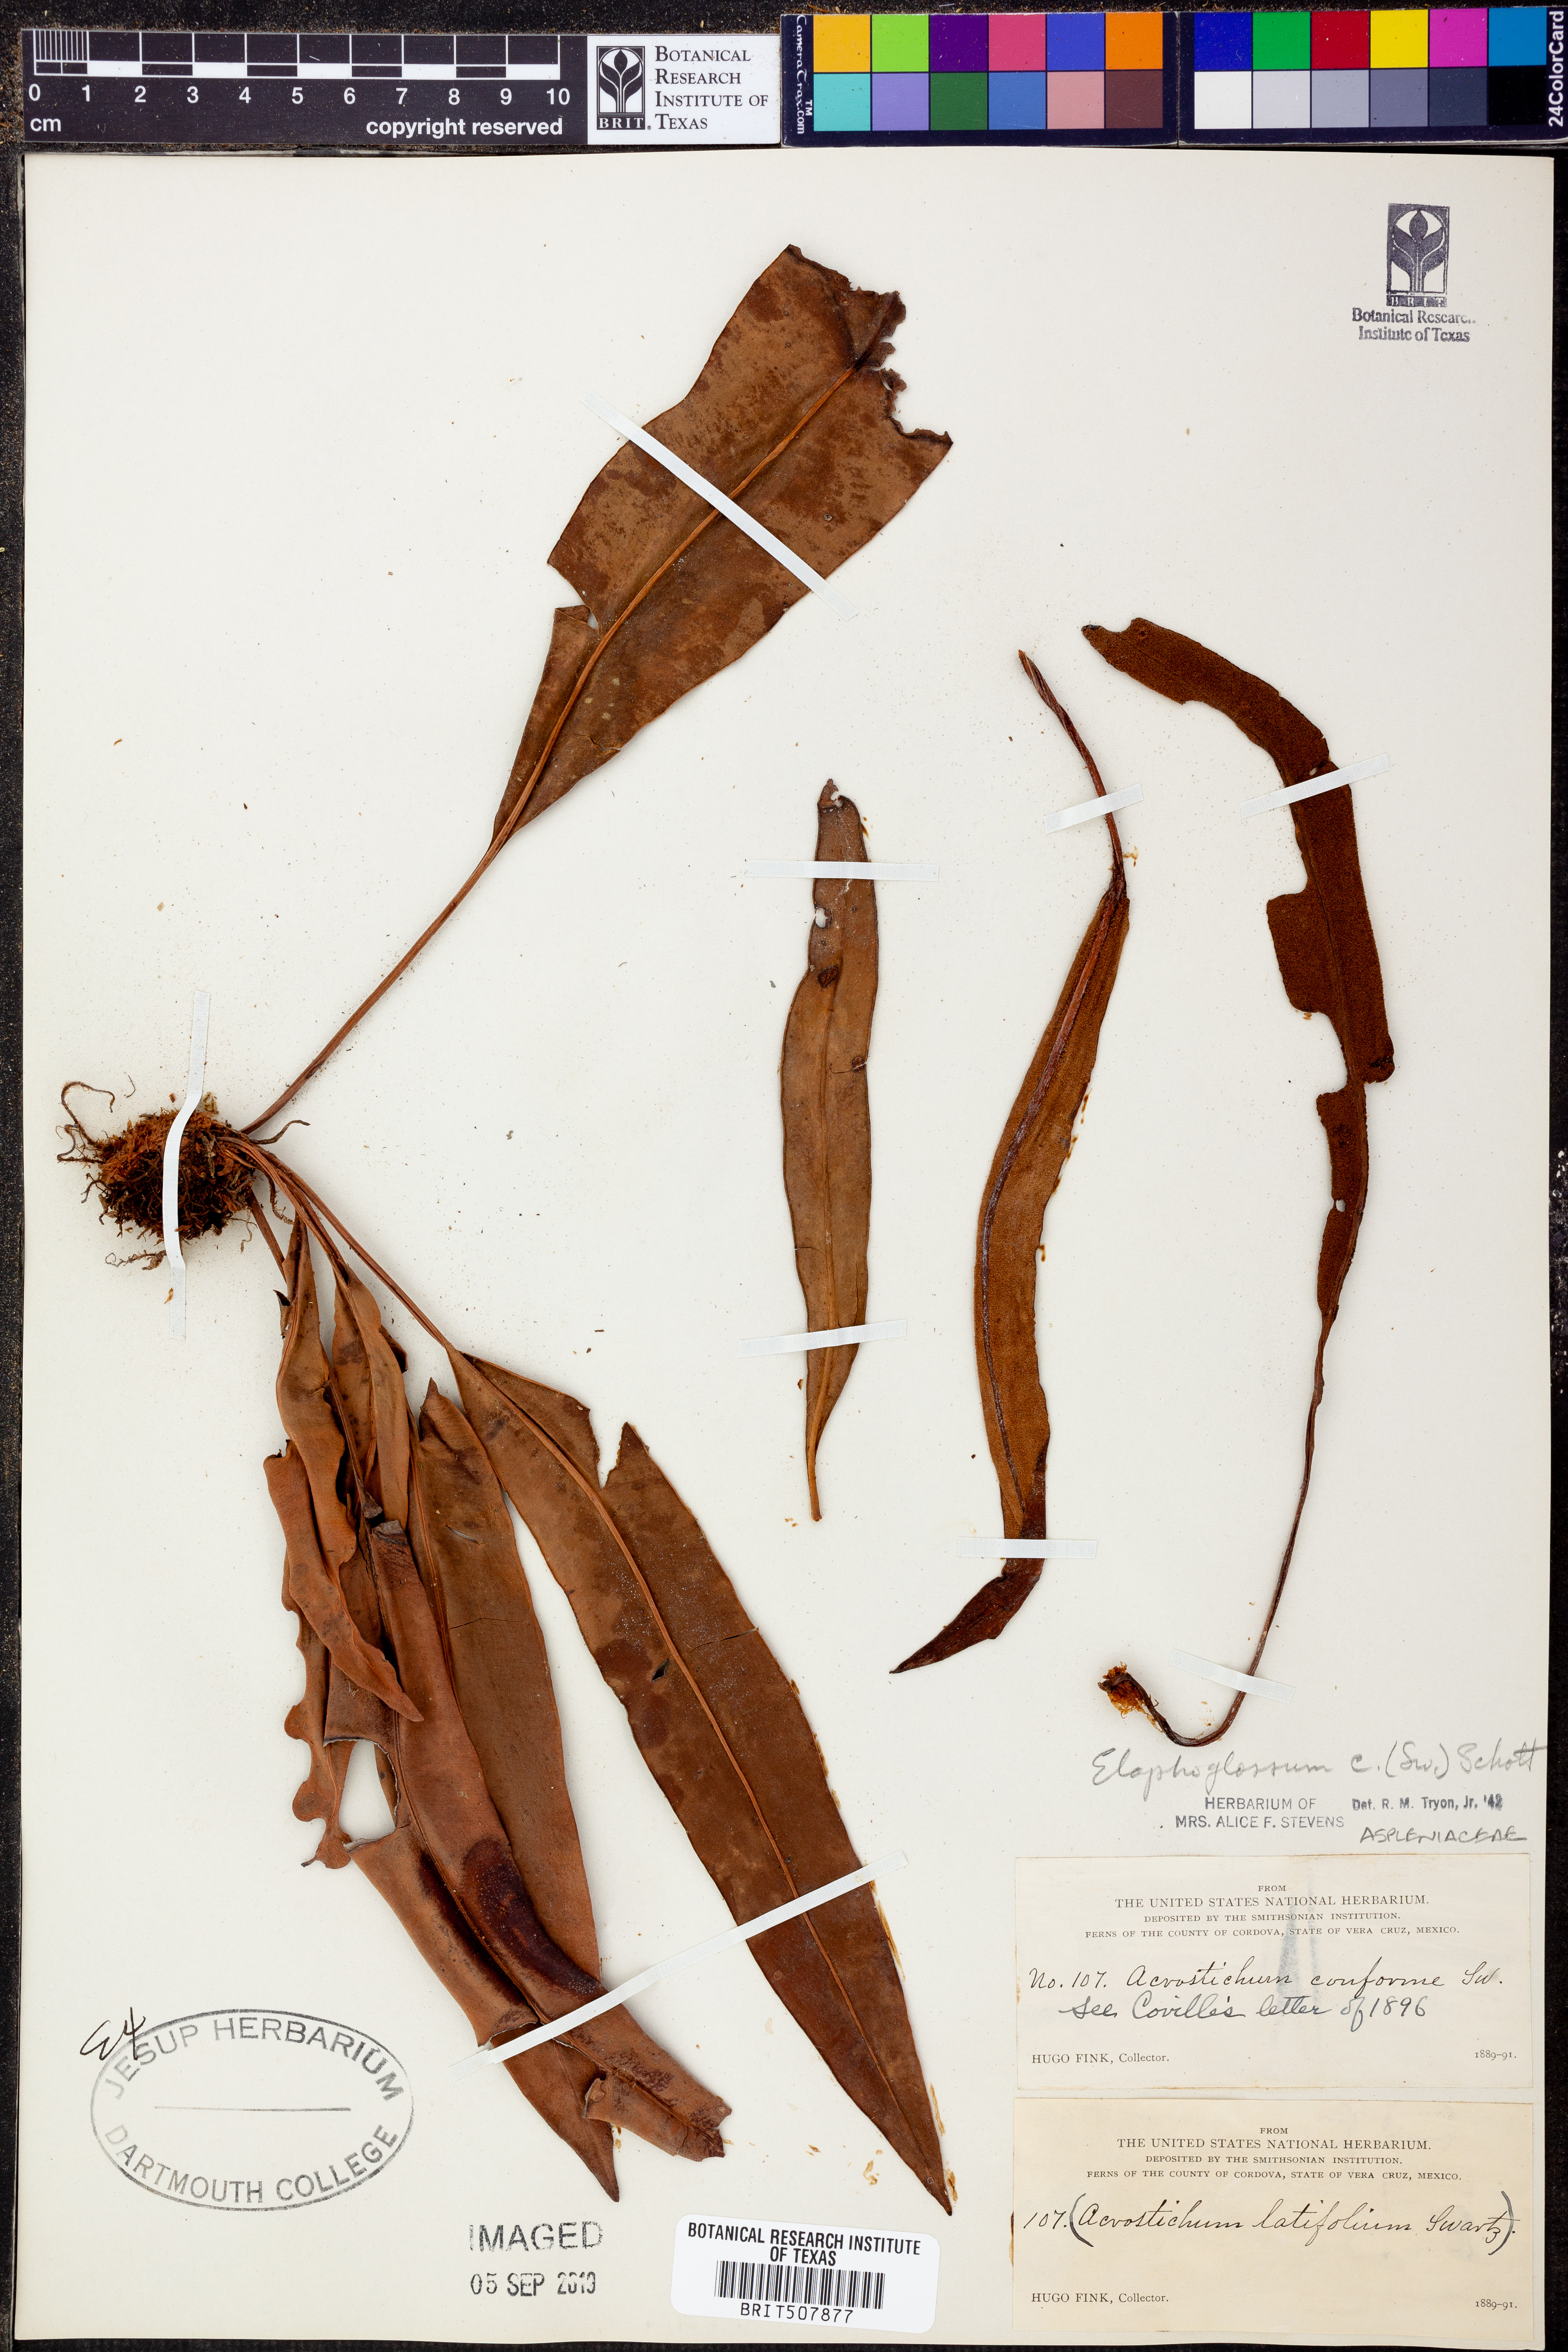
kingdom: Plantae
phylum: Tracheophyta
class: Polypodiopsida
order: Polypodiales
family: Dryopteridaceae
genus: Elaphoglossum
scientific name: Elaphoglossum xanthopodum
